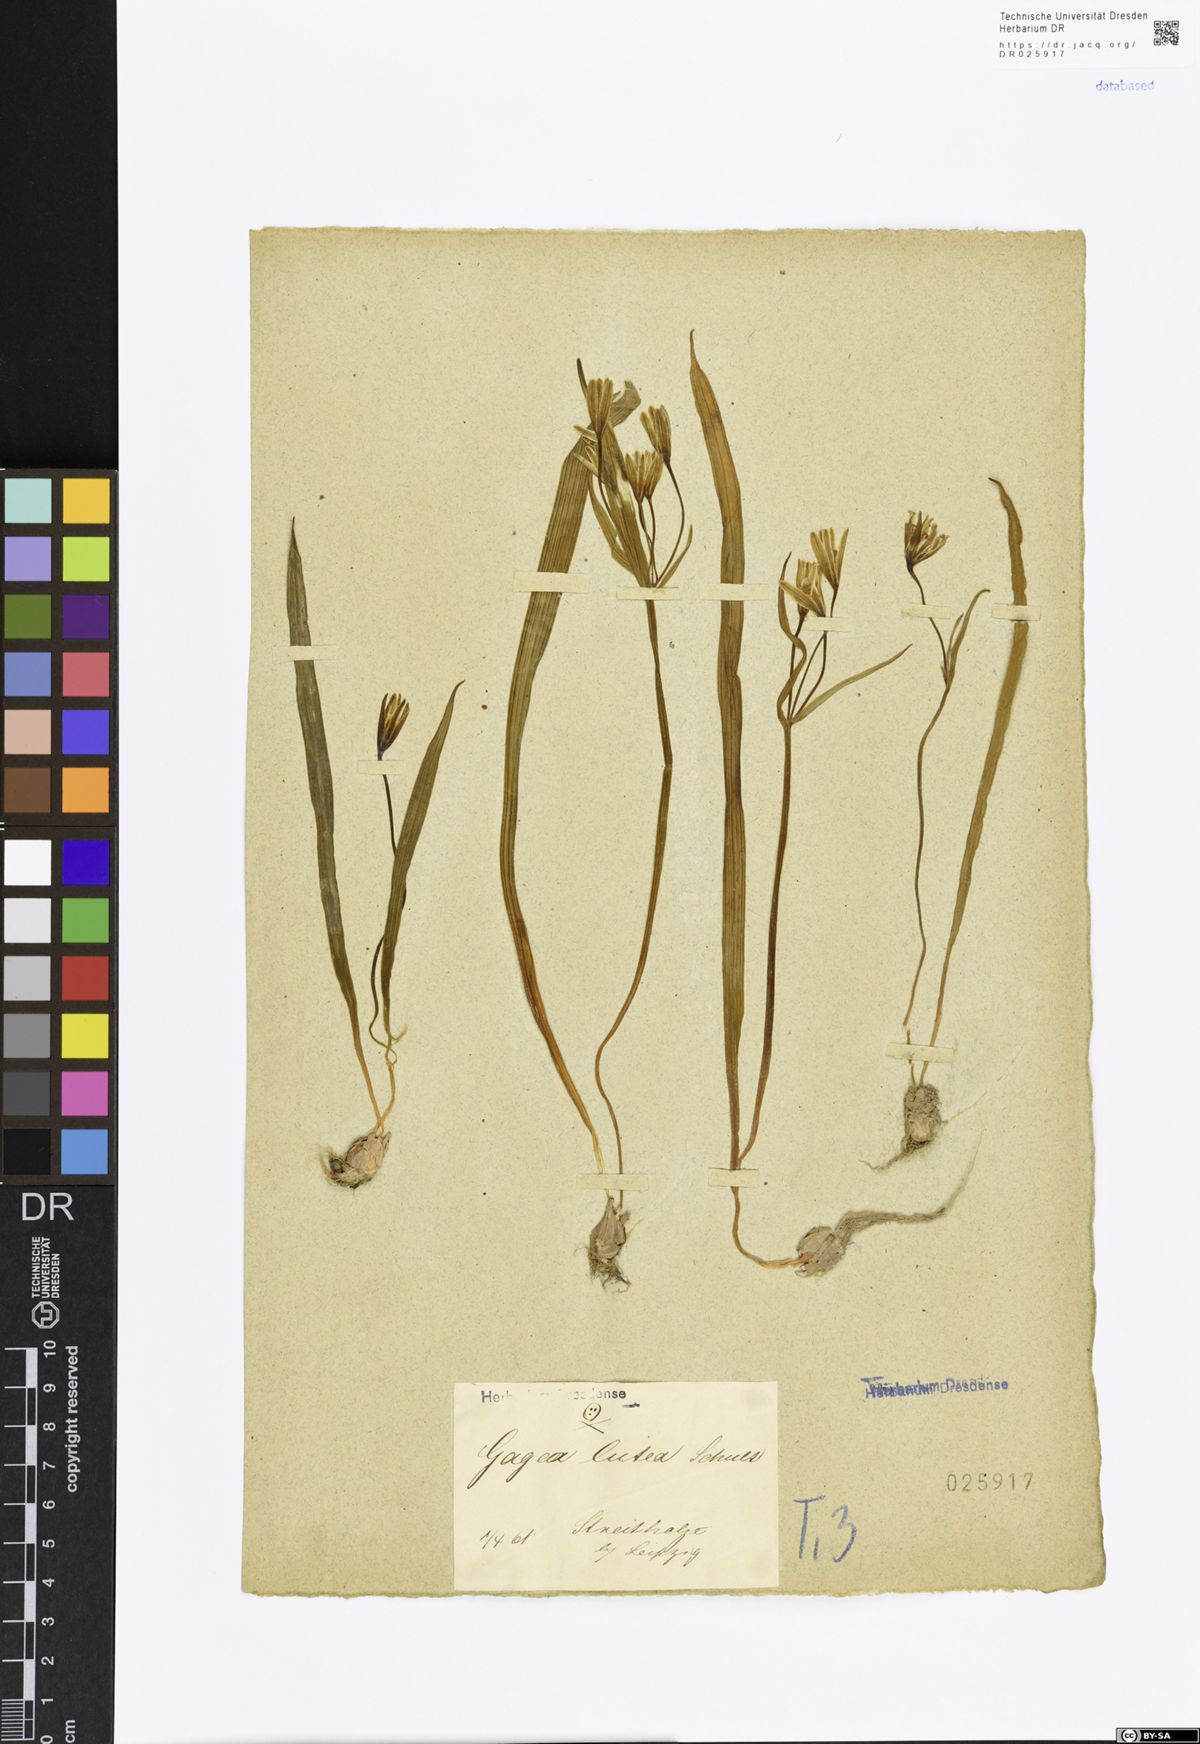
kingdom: Plantae
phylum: Tracheophyta
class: Liliopsida
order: Liliales
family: Liliaceae
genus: Gagea
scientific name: Gagea lutea
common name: Yellow star-of-bethlehem
